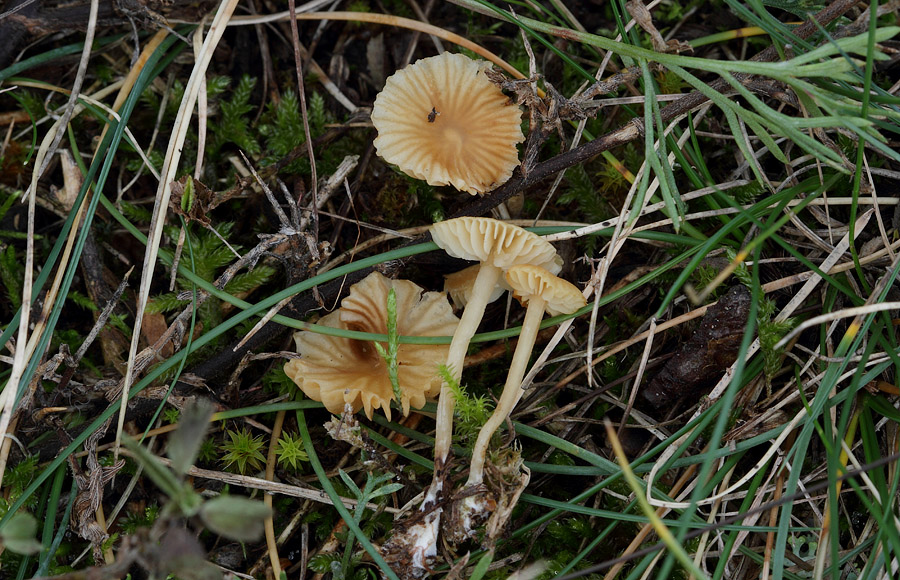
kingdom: Fungi
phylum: Basidiomycota
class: Agaricomycetes
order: Agaricales
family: Hymenogastraceae
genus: Galerina
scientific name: Galerina graminea
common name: plæne-hjelmhat
